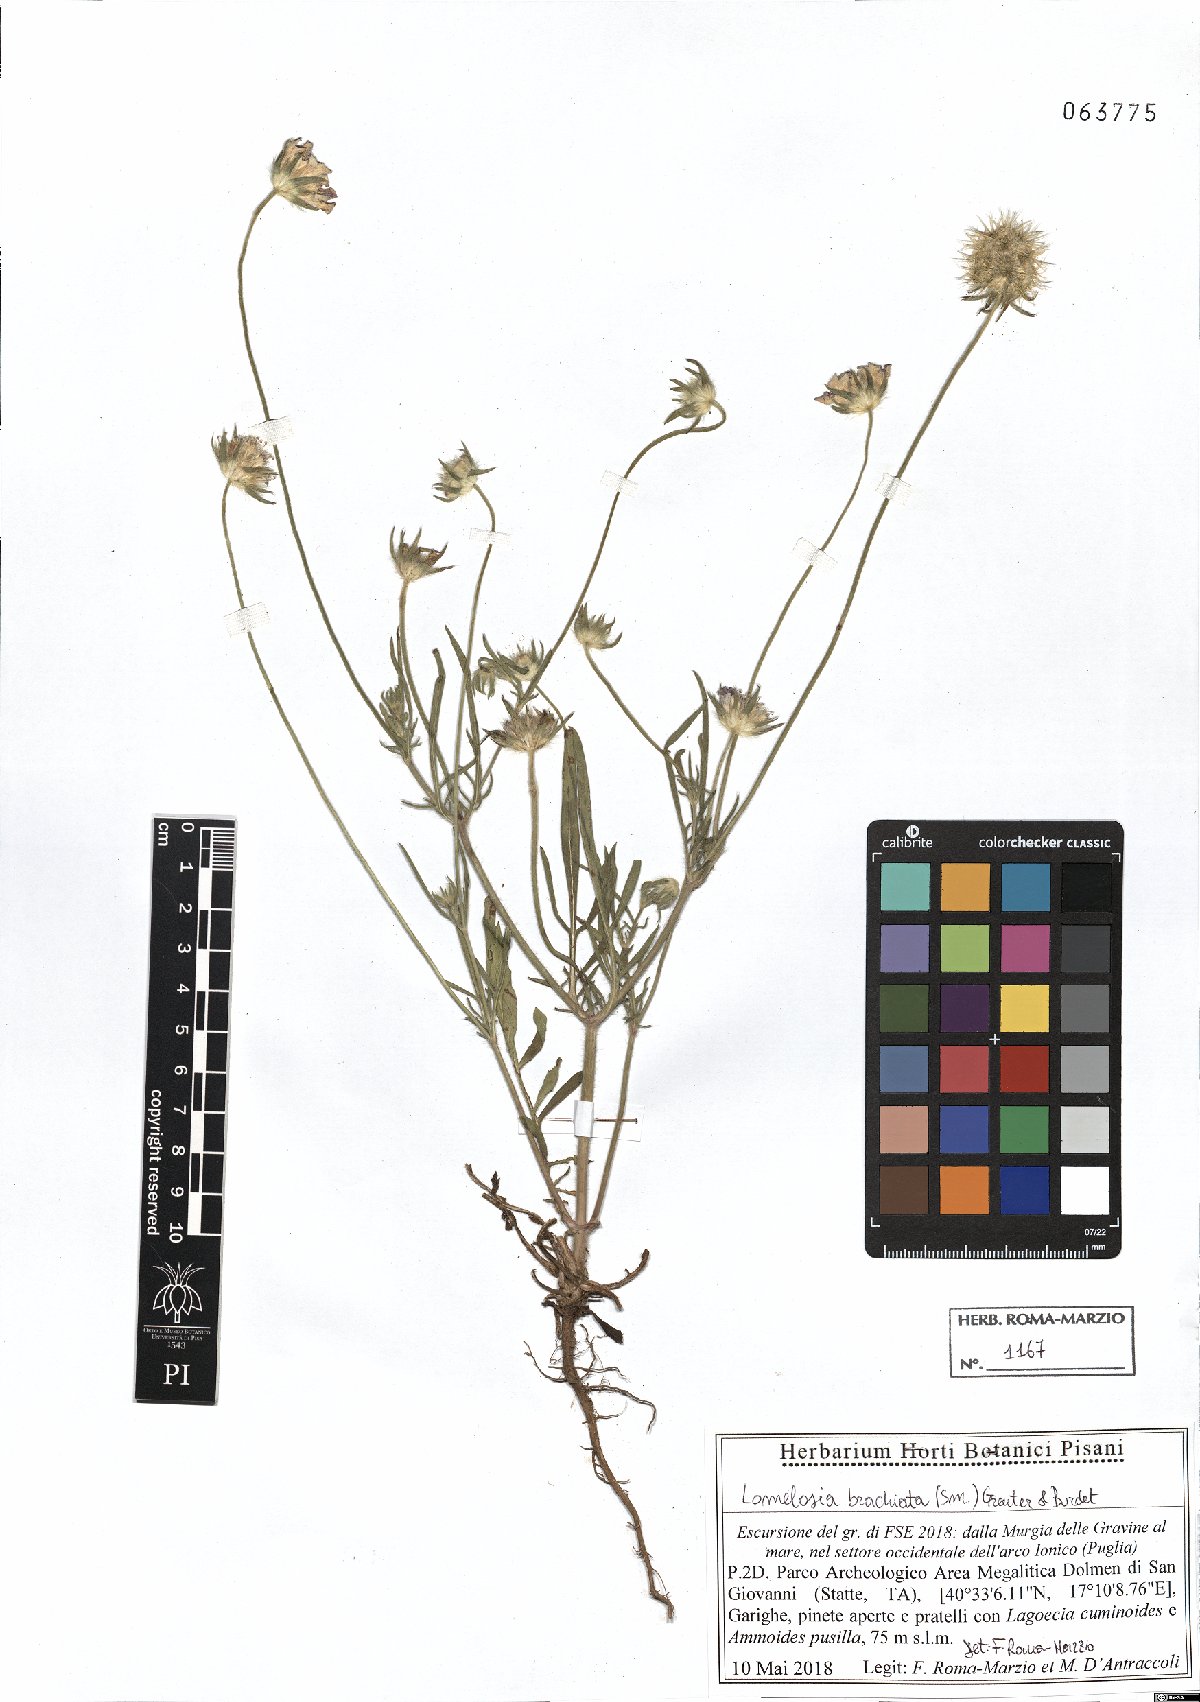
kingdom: Plantae
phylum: Tracheophyta
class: Magnoliopsida
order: Dipsacales
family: Caprifoliaceae
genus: Lomelosia
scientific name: Lomelosia brachiata
